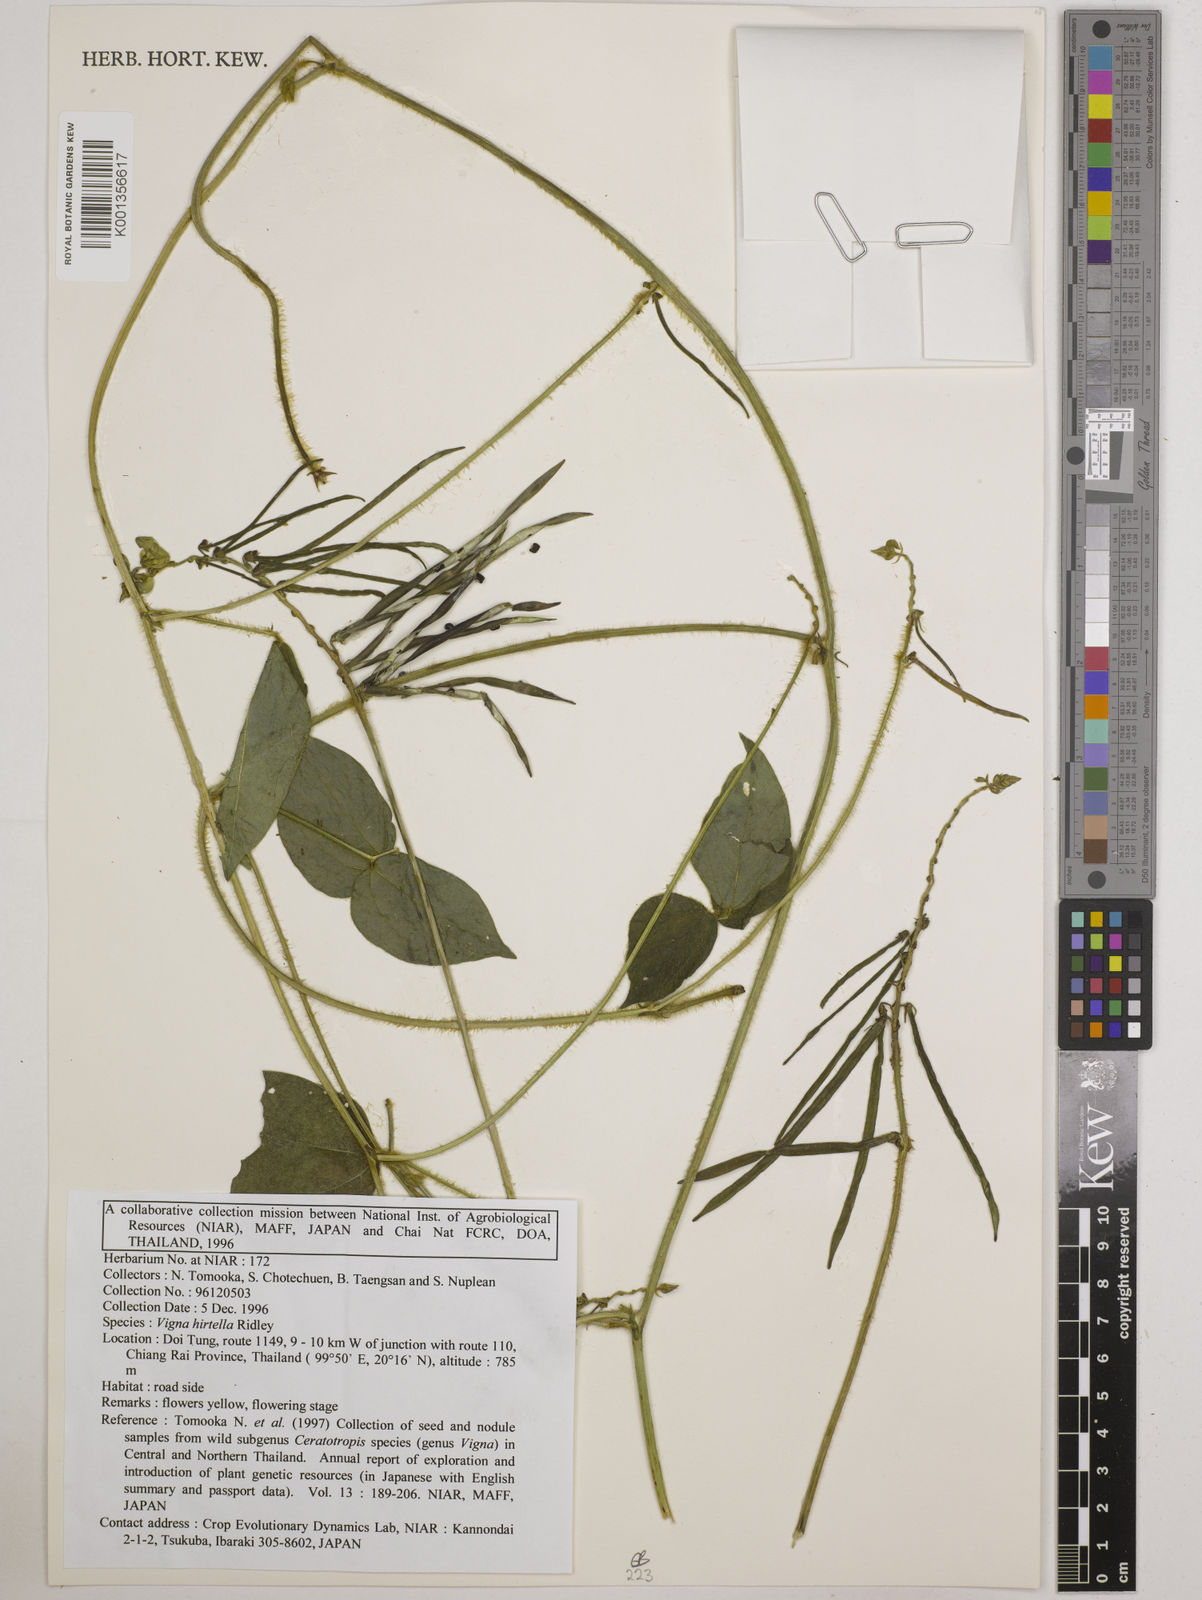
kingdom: Plantae
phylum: Tracheophyta
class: Magnoliopsida
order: Fabales
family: Fabaceae
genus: Vigna
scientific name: Vigna hirtella
